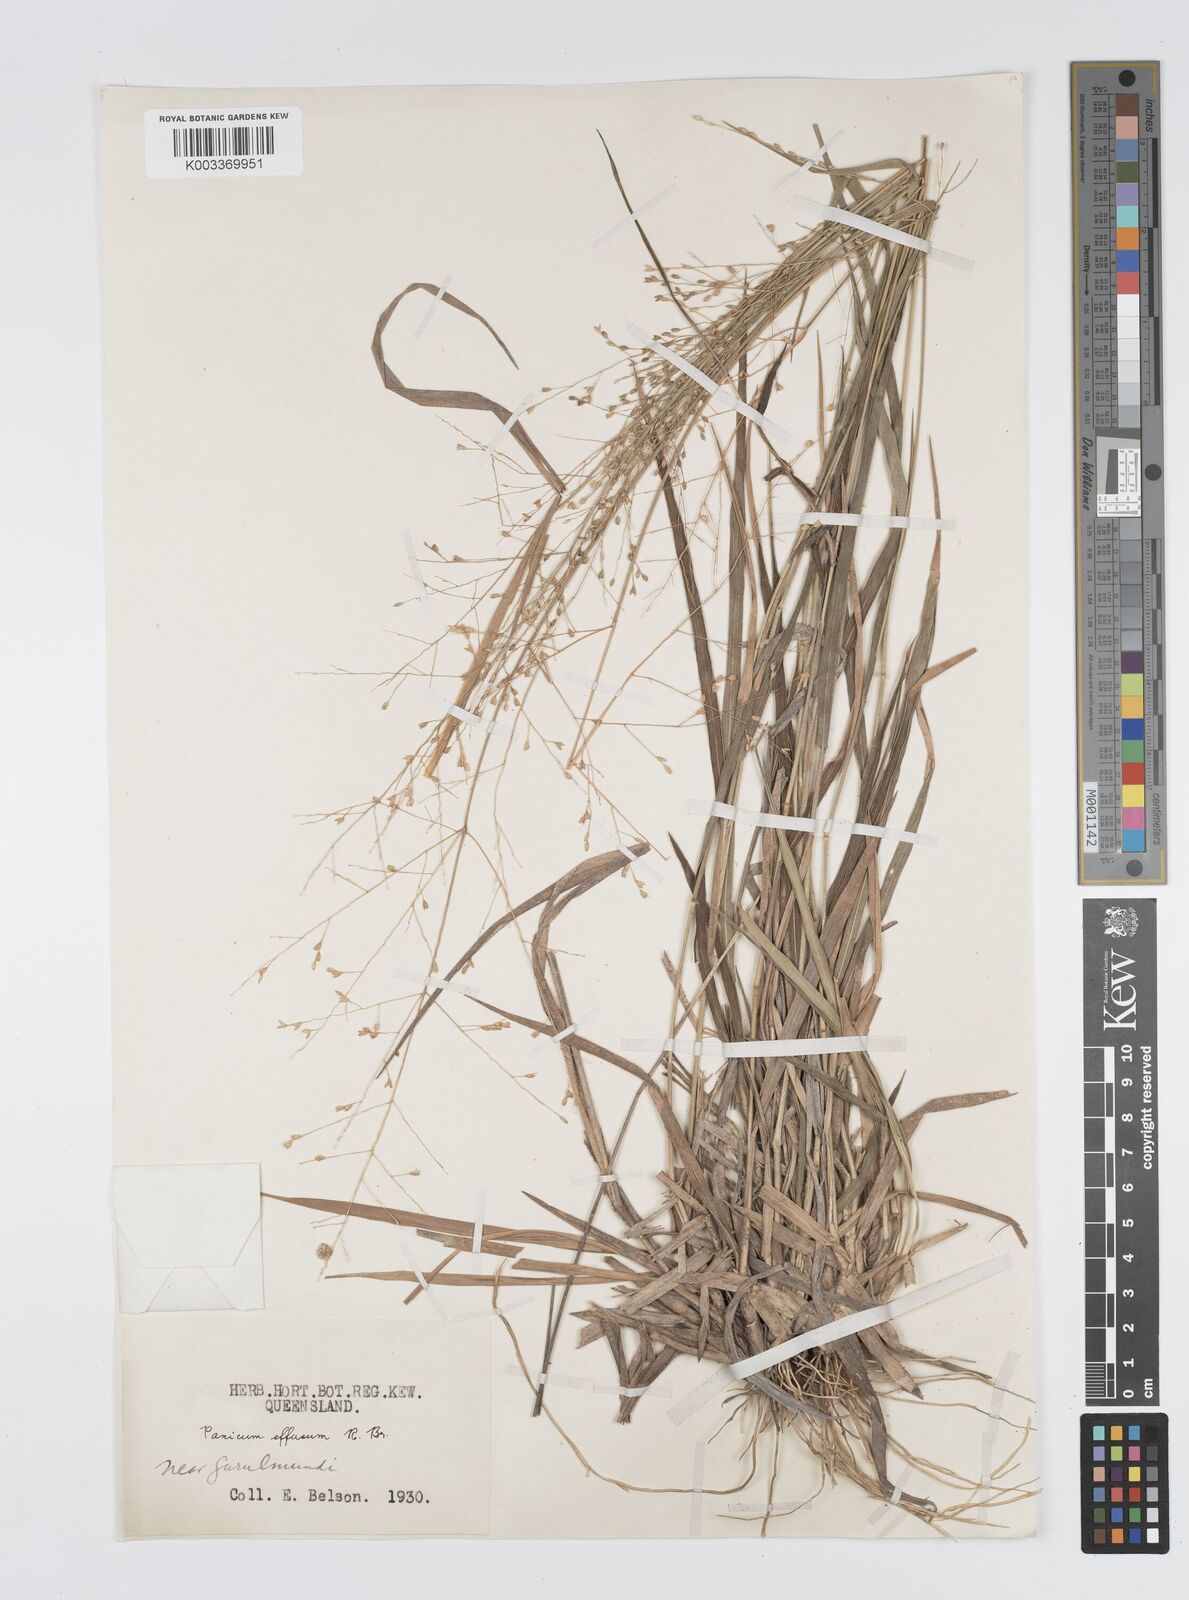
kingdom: Plantae
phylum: Tracheophyta
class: Liliopsida
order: Poales
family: Poaceae
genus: Panicum
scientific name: Panicum effusum
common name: Hairy panic grass
